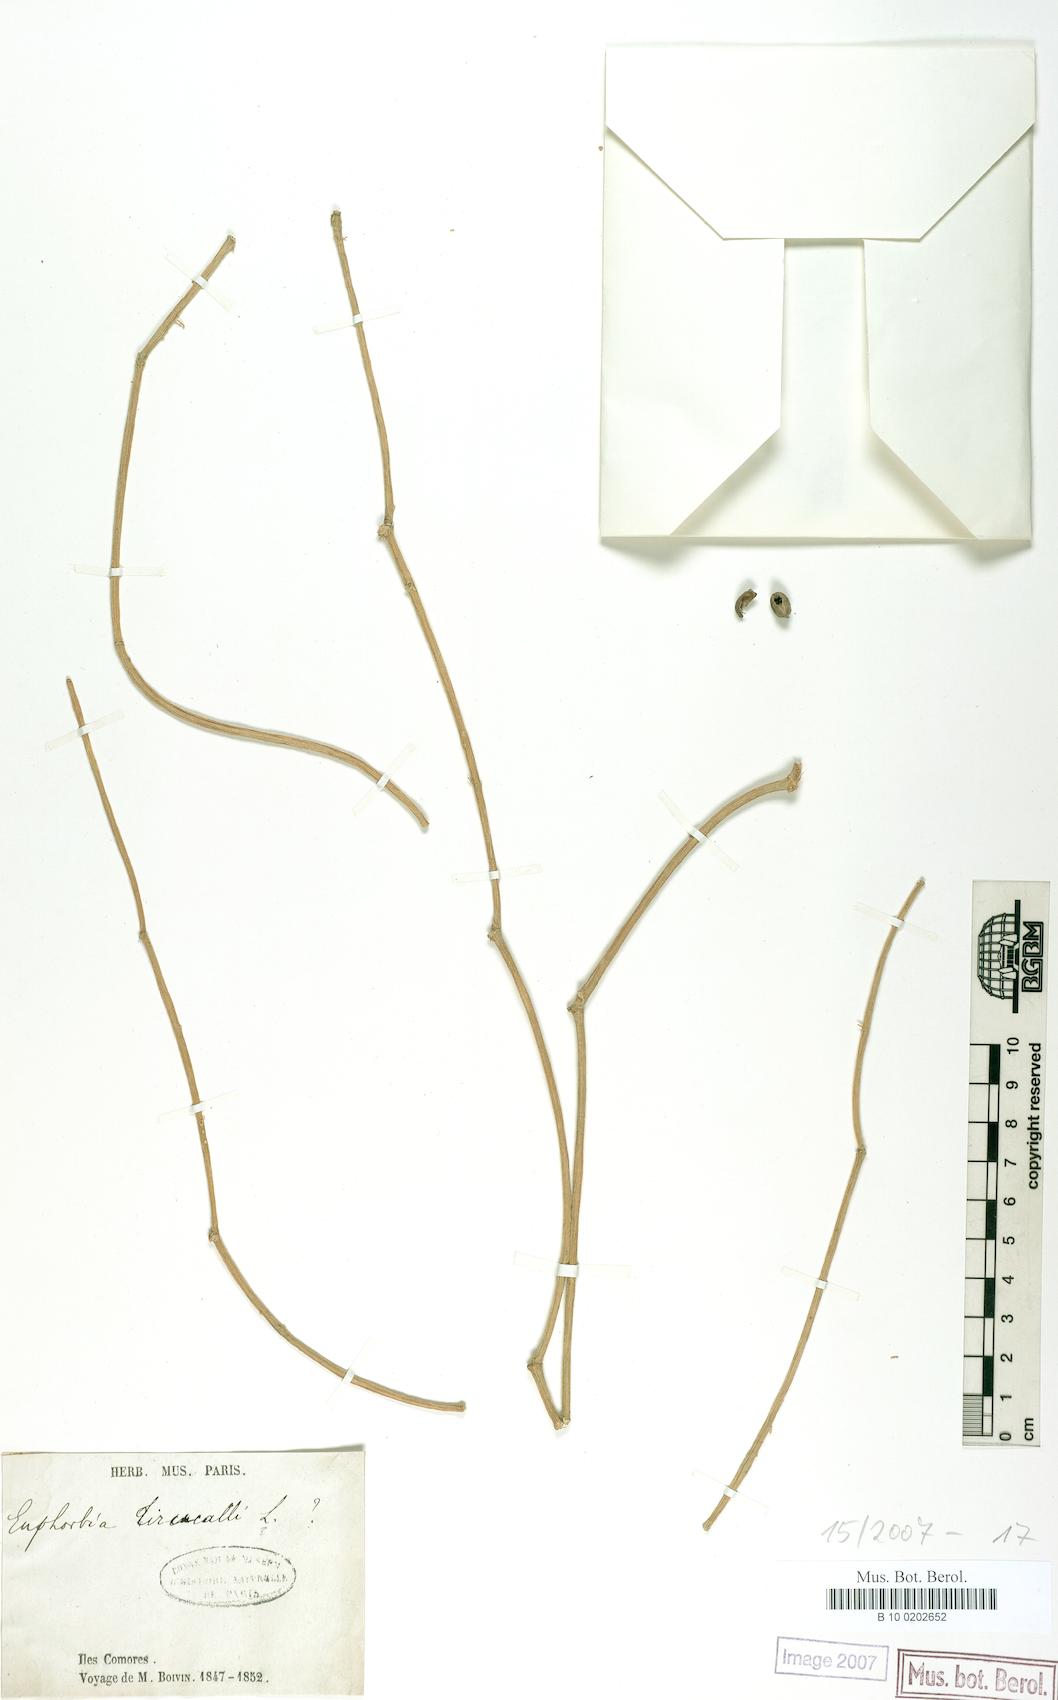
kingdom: Plantae
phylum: Tracheophyta
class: Magnoliopsida
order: Malpighiales
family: Euphorbiaceae
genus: Euphorbia
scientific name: Euphorbia tirucalli
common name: Indiantree spurge
